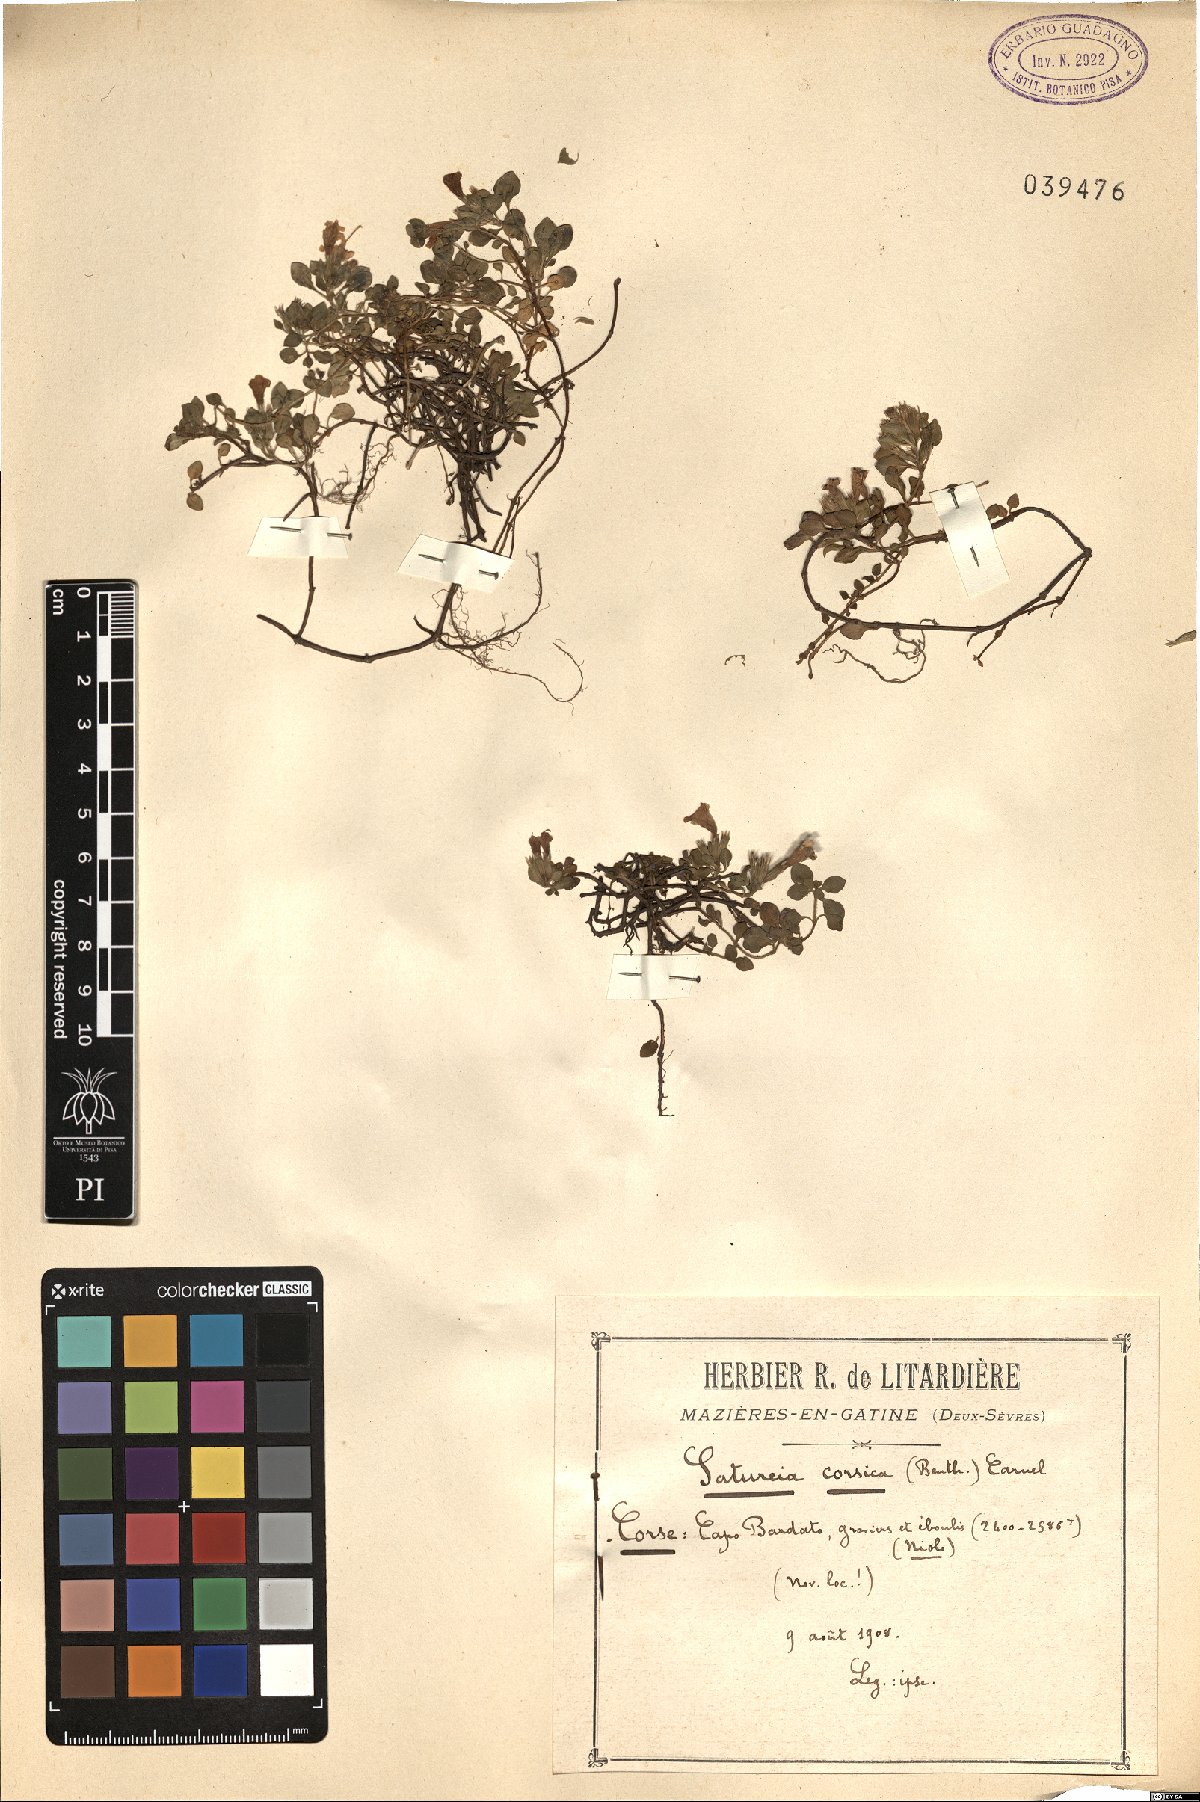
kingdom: Plantae
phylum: Tracheophyta
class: Magnoliopsida
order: Lamiales
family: Lamiaceae
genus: Clinopodium
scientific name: Clinopodium corsicum
